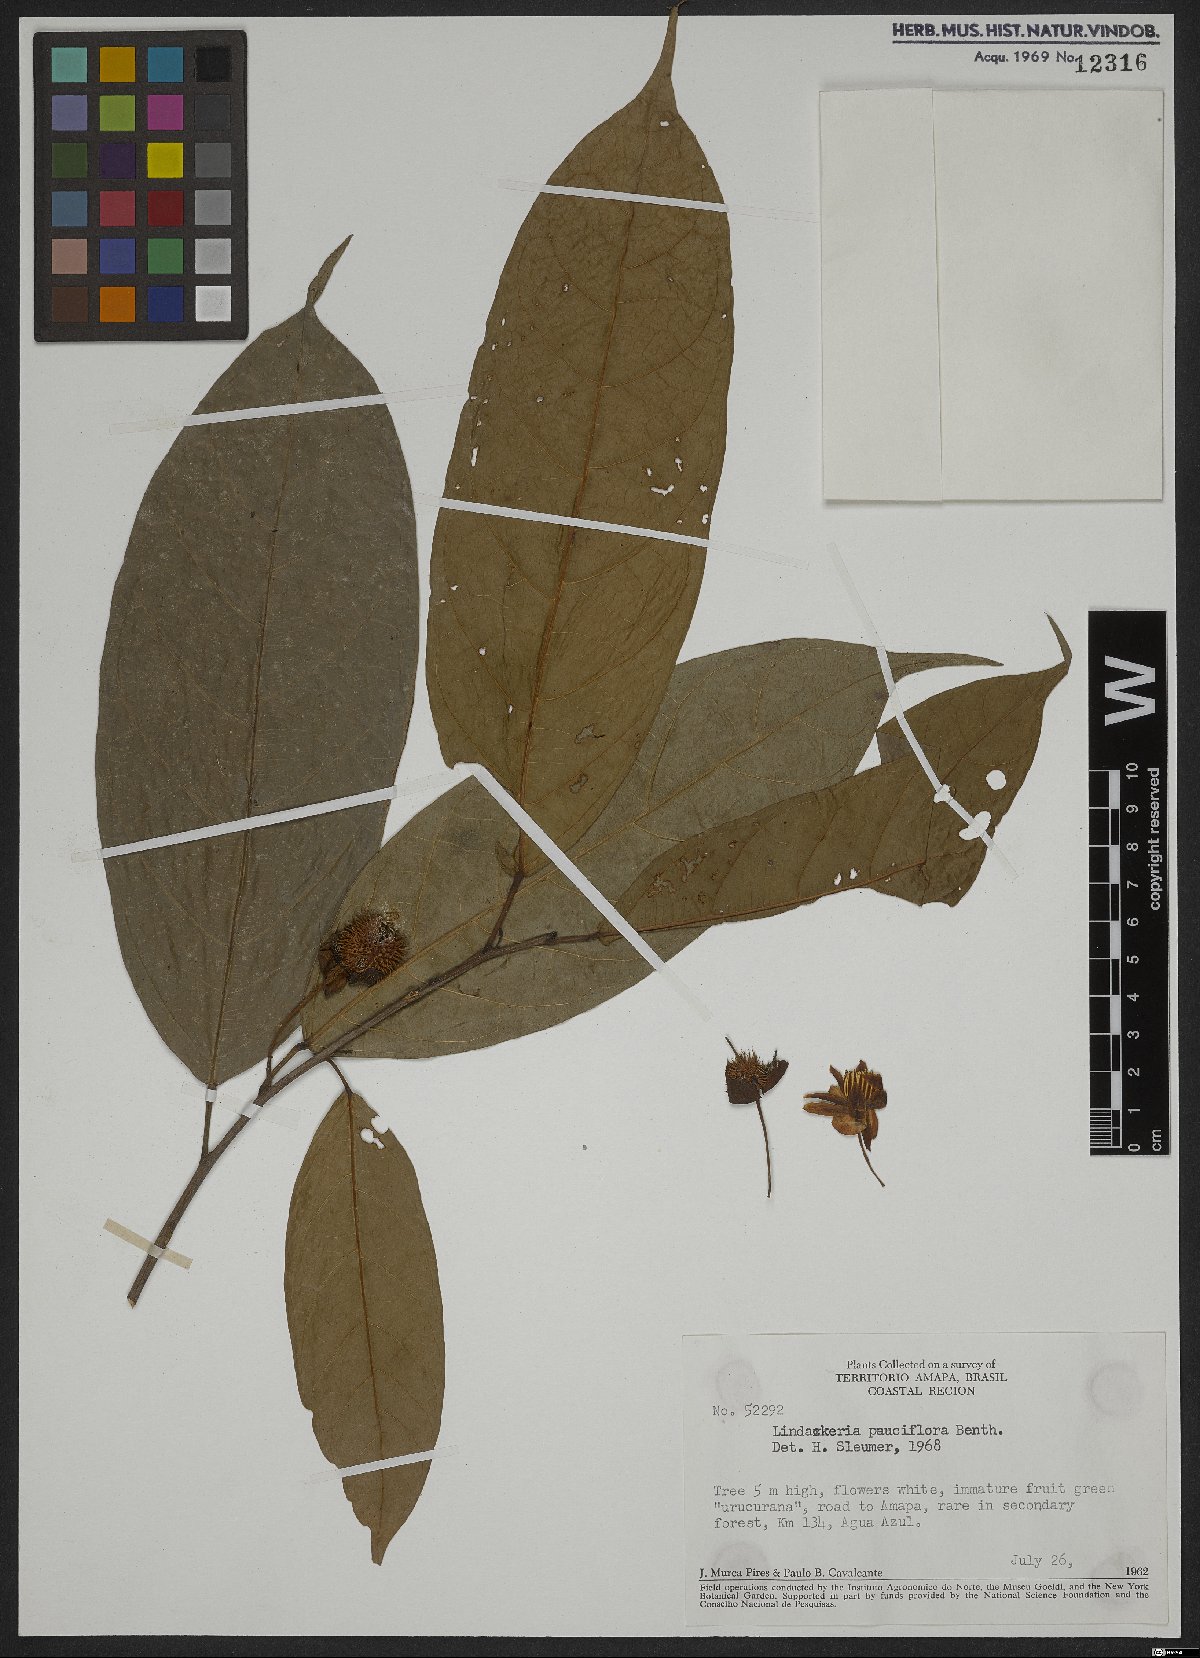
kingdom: Plantae
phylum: Tracheophyta
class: Magnoliopsida
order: Malpighiales
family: Achariaceae
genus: Lindackeria
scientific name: Lindackeria pauciflora
